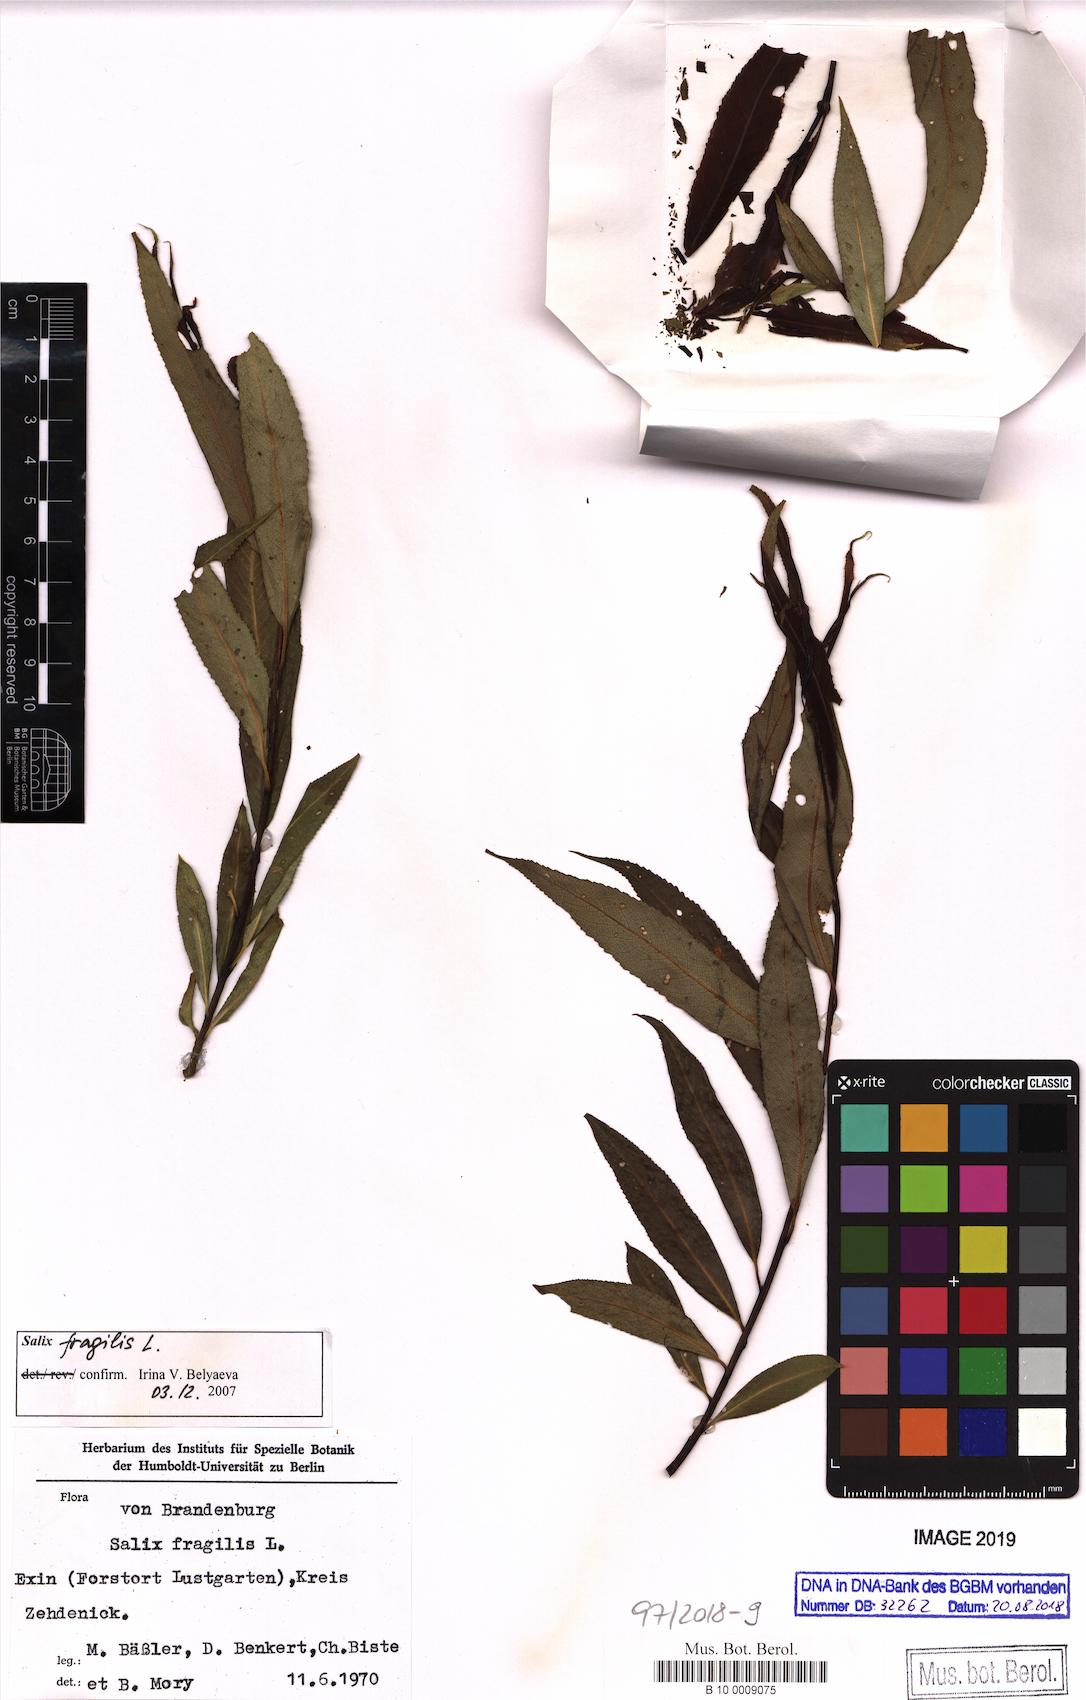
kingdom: Plantae
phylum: Tracheophyta
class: Magnoliopsida
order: Malpighiales
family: Salicaceae
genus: Salix
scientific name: Salix fragilis
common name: Crack willow
